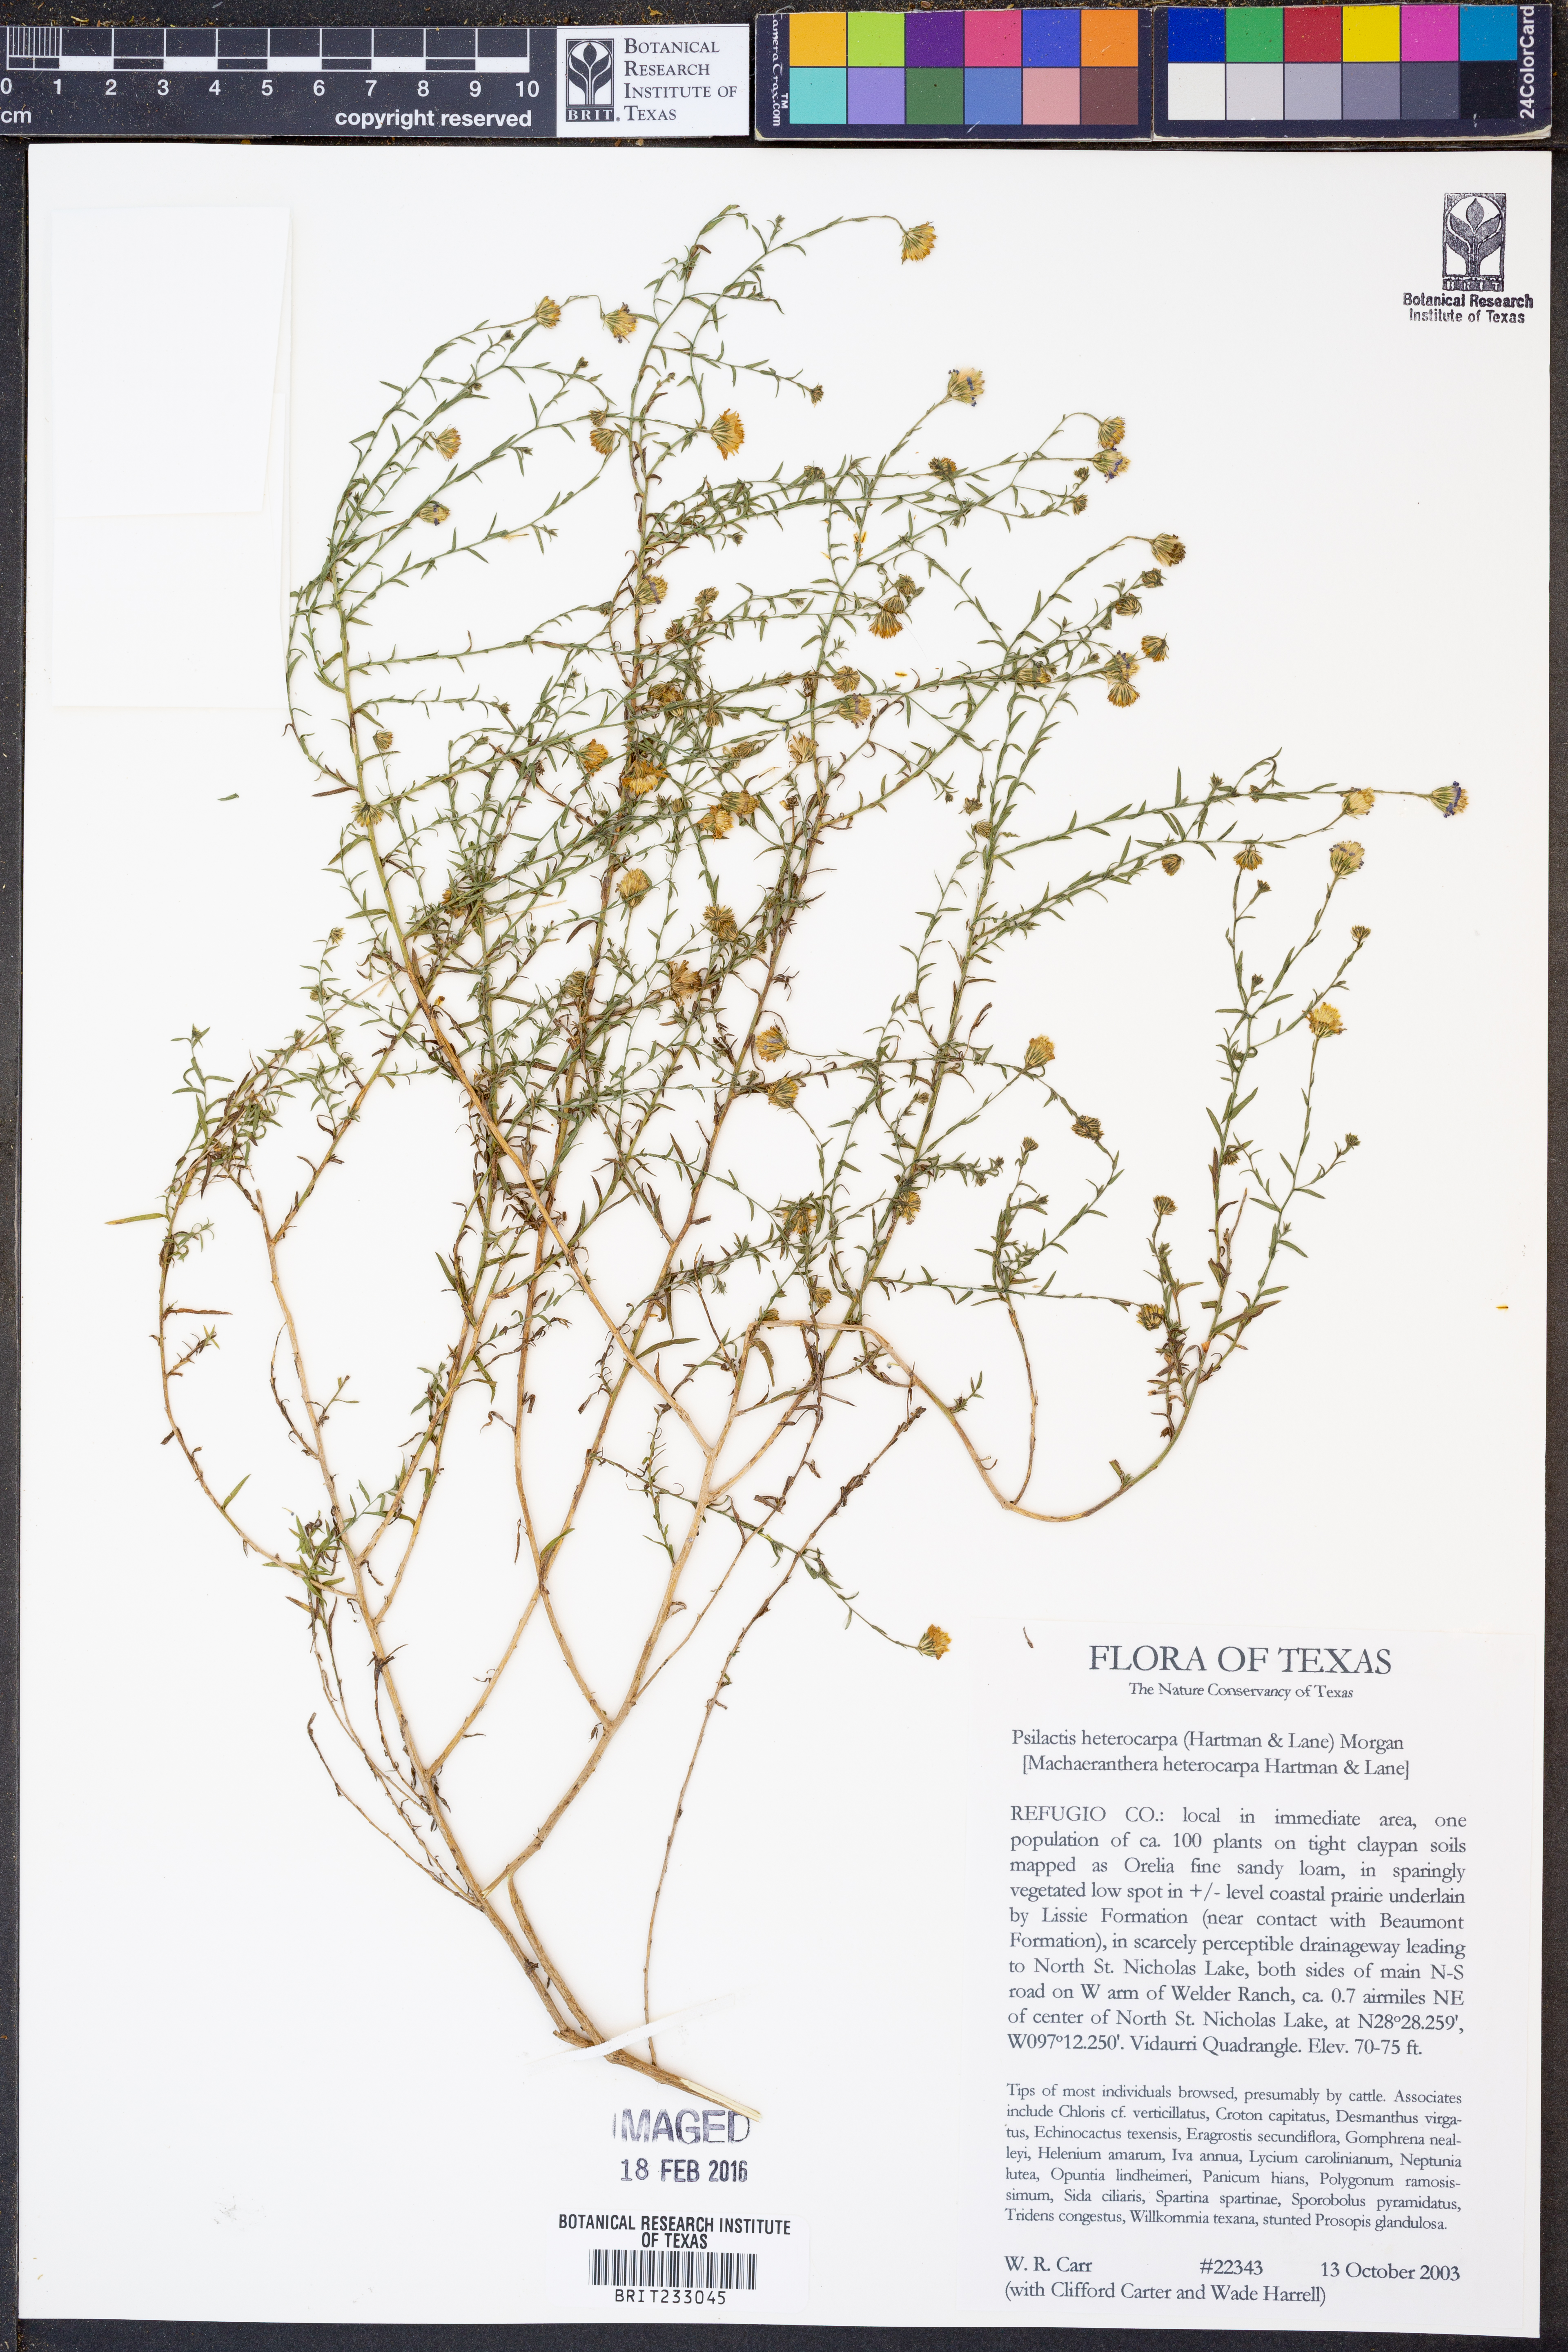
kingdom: Plantae
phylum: Tracheophyta
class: Magnoliopsida
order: Asterales
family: Asteraceae
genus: Psilactis
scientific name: Psilactis heterocarpa
